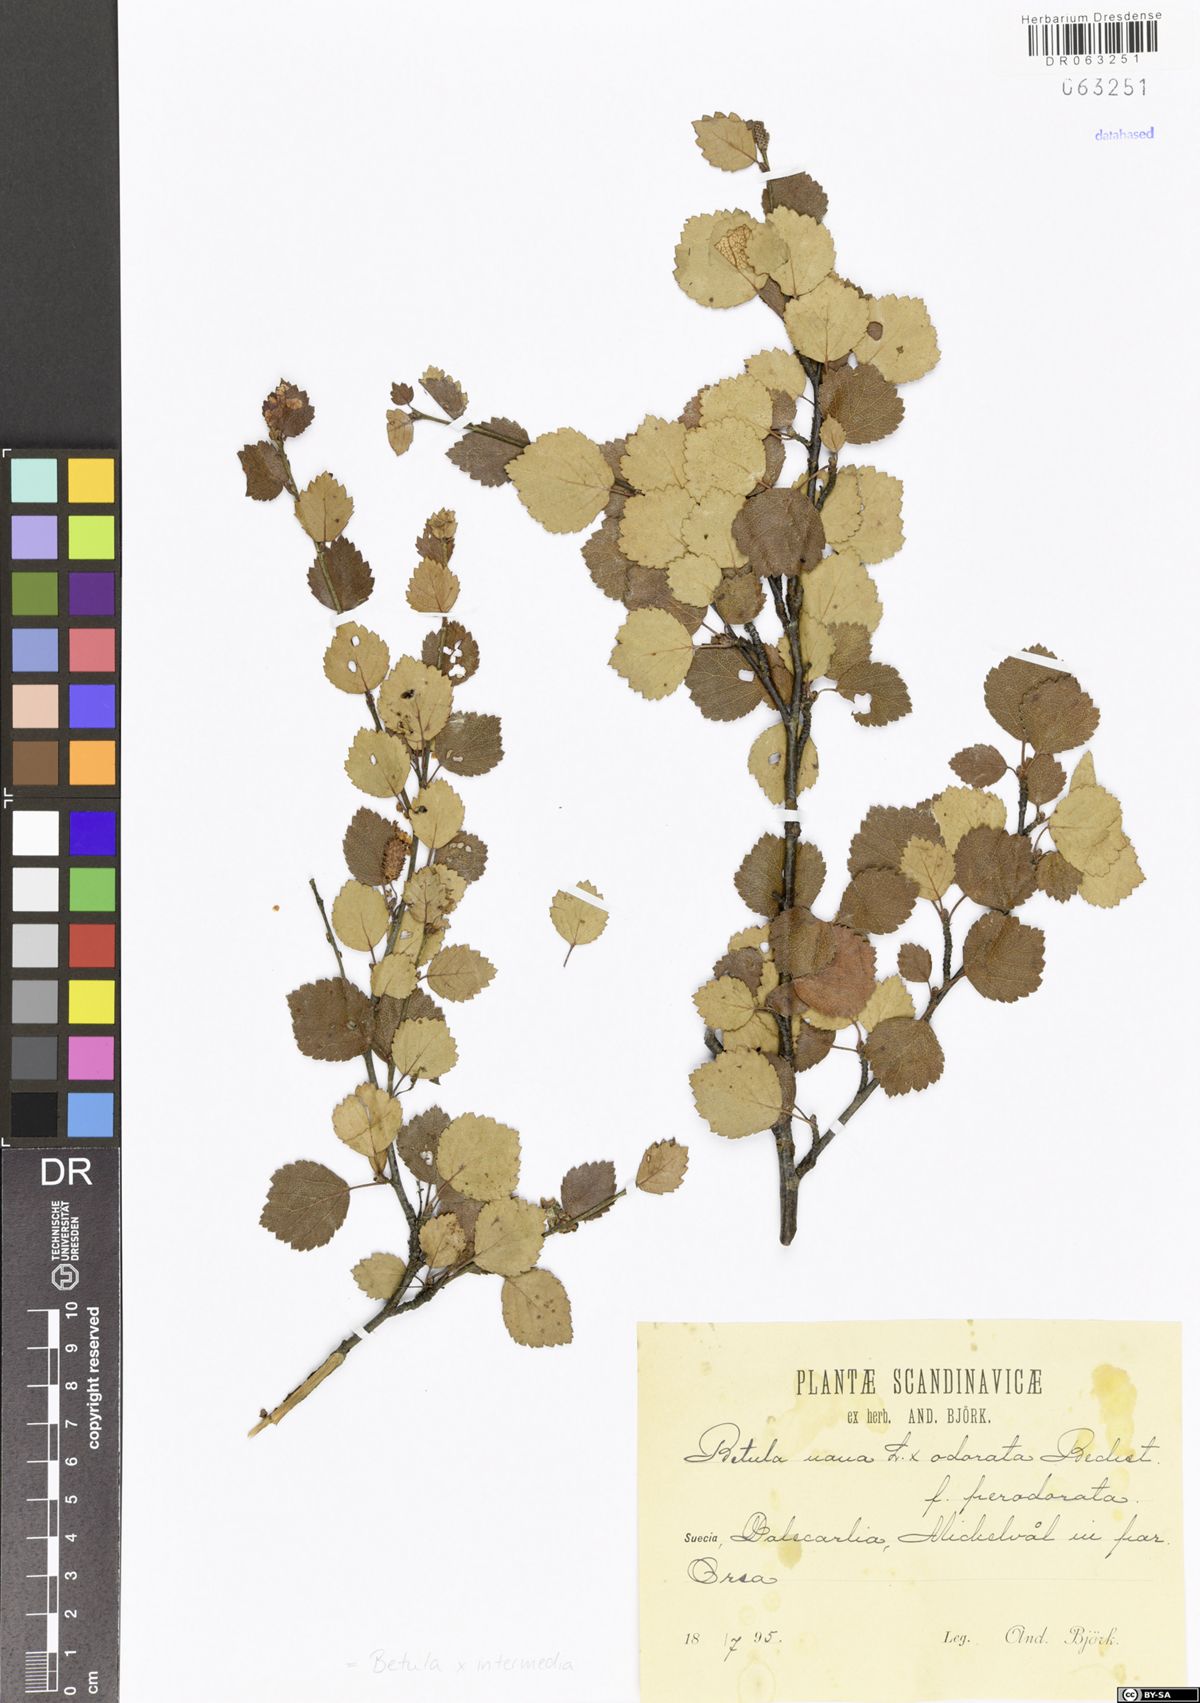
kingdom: Plantae
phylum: Tracheophyta
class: Magnoliopsida
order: Fagales
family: Betulaceae
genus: Betula
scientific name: Betula intermedia
